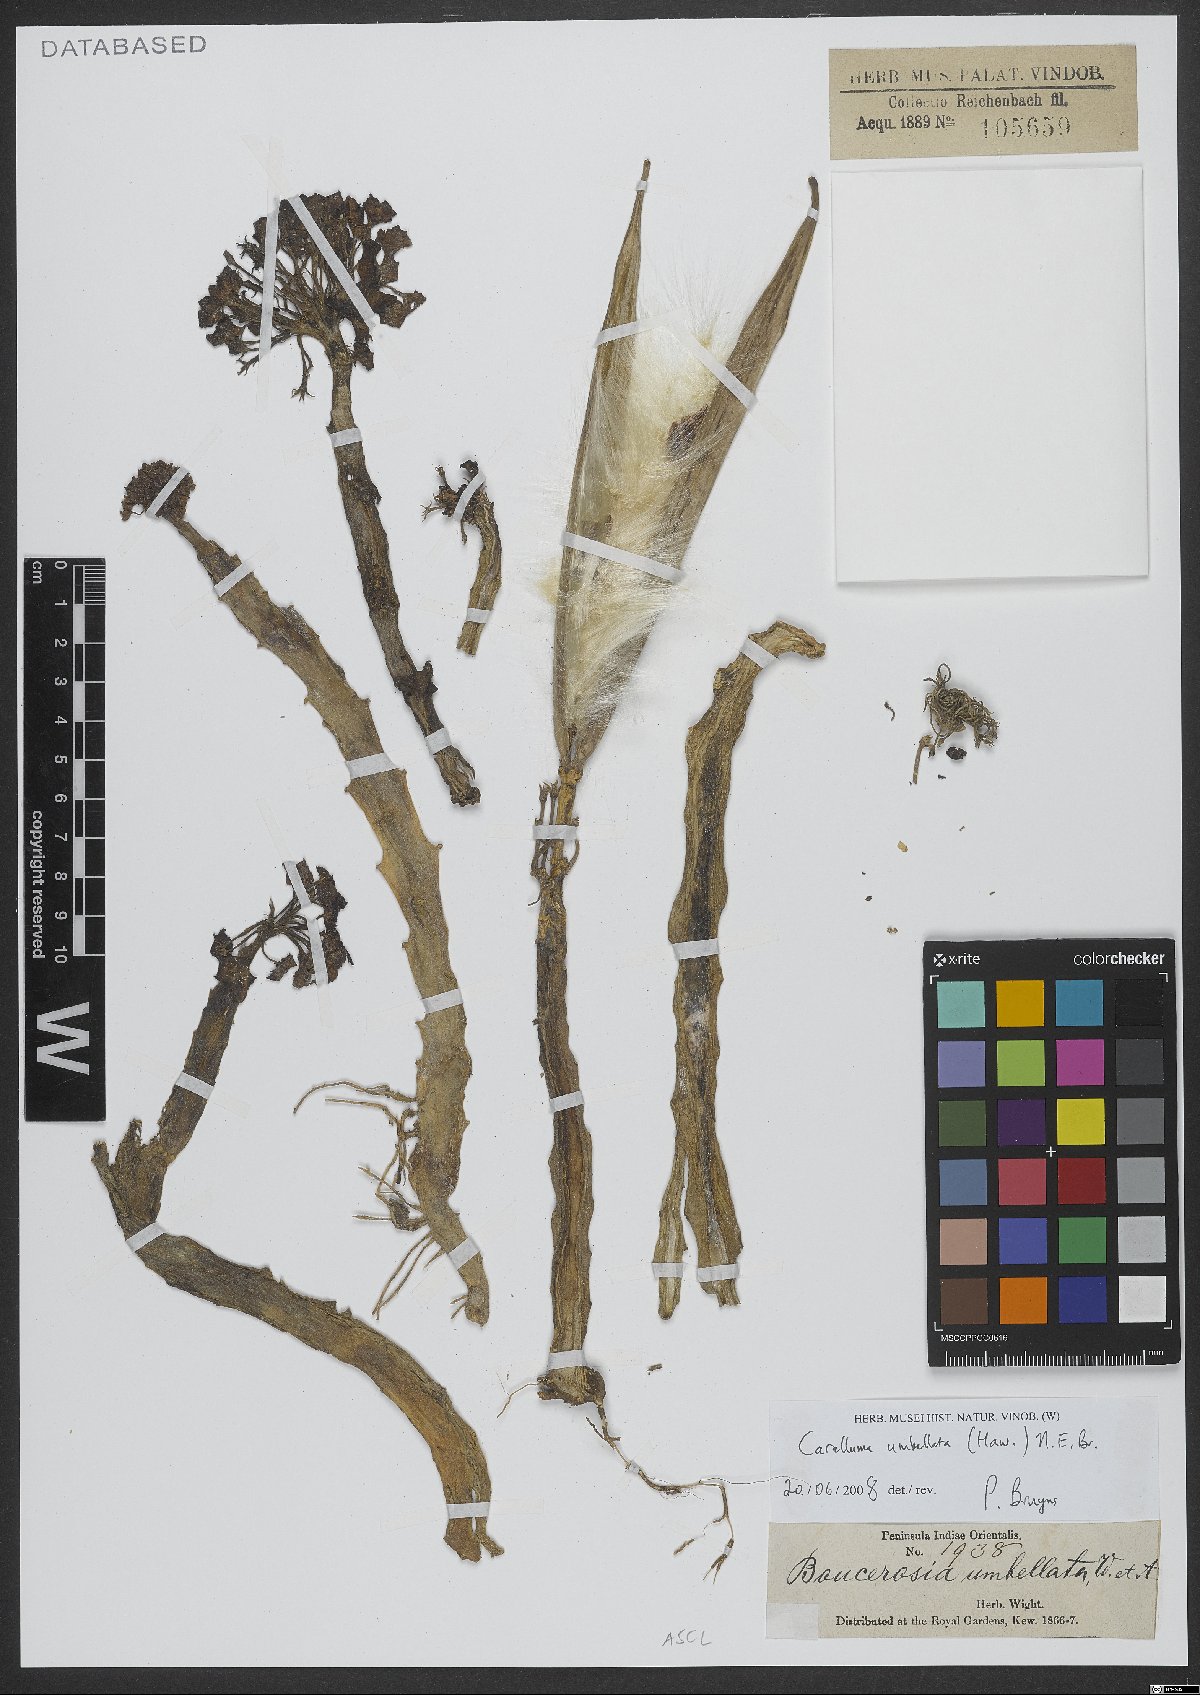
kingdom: Plantae
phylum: Tracheophyta
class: Magnoliopsida
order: Gentianales
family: Apocynaceae
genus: Ceropegia
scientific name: Ceropegia umbellata
